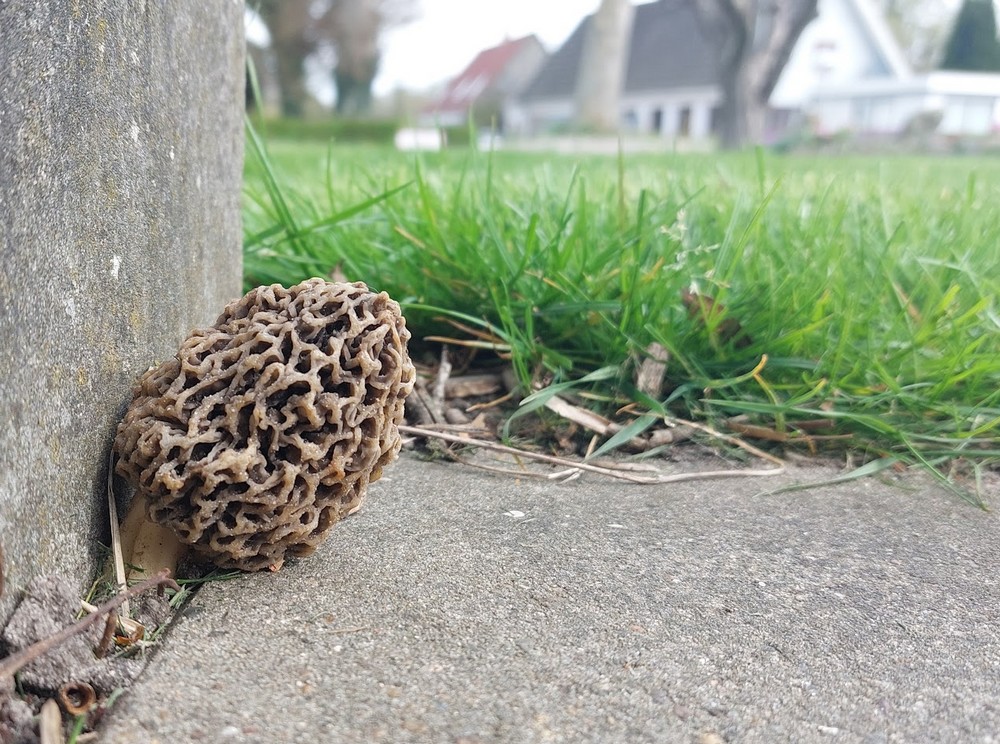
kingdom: Fungi
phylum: Ascomycota
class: Pezizomycetes
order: Pezizales
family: Morchellaceae
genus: Morchella
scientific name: Morchella esculenta
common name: almindelig morkel
